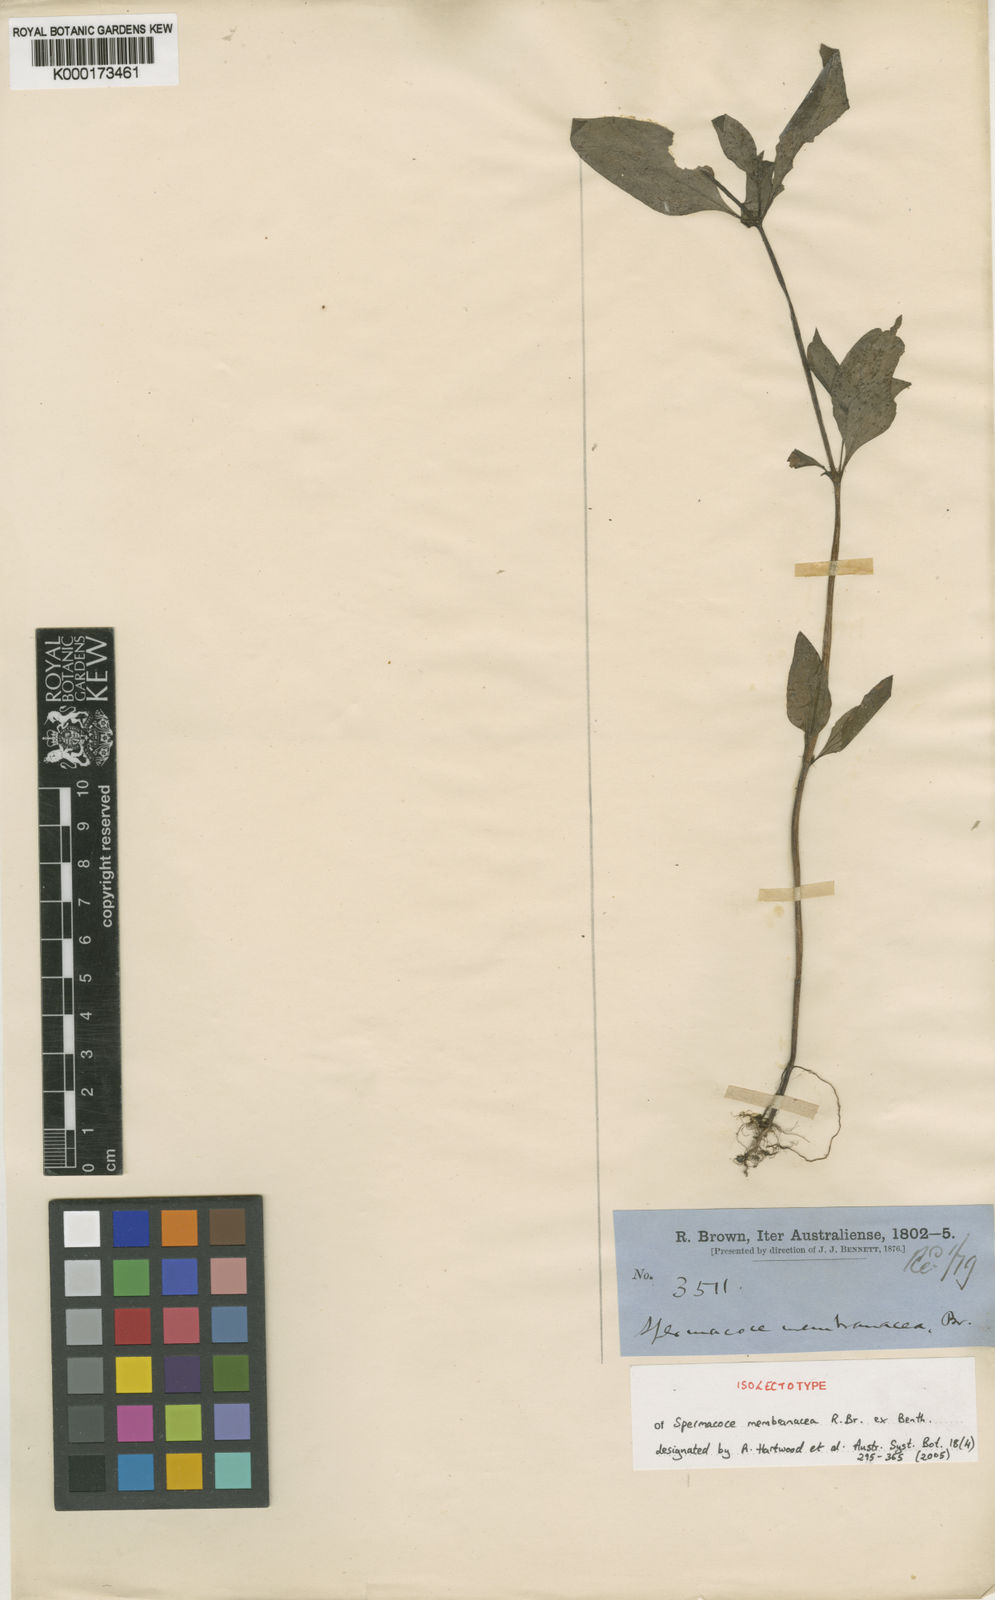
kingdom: Plantae
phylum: Tracheophyta
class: Magnoliopsida
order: Gentianales
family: Rubiaceae
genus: Spermacoce
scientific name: Spermacoce membranacea
